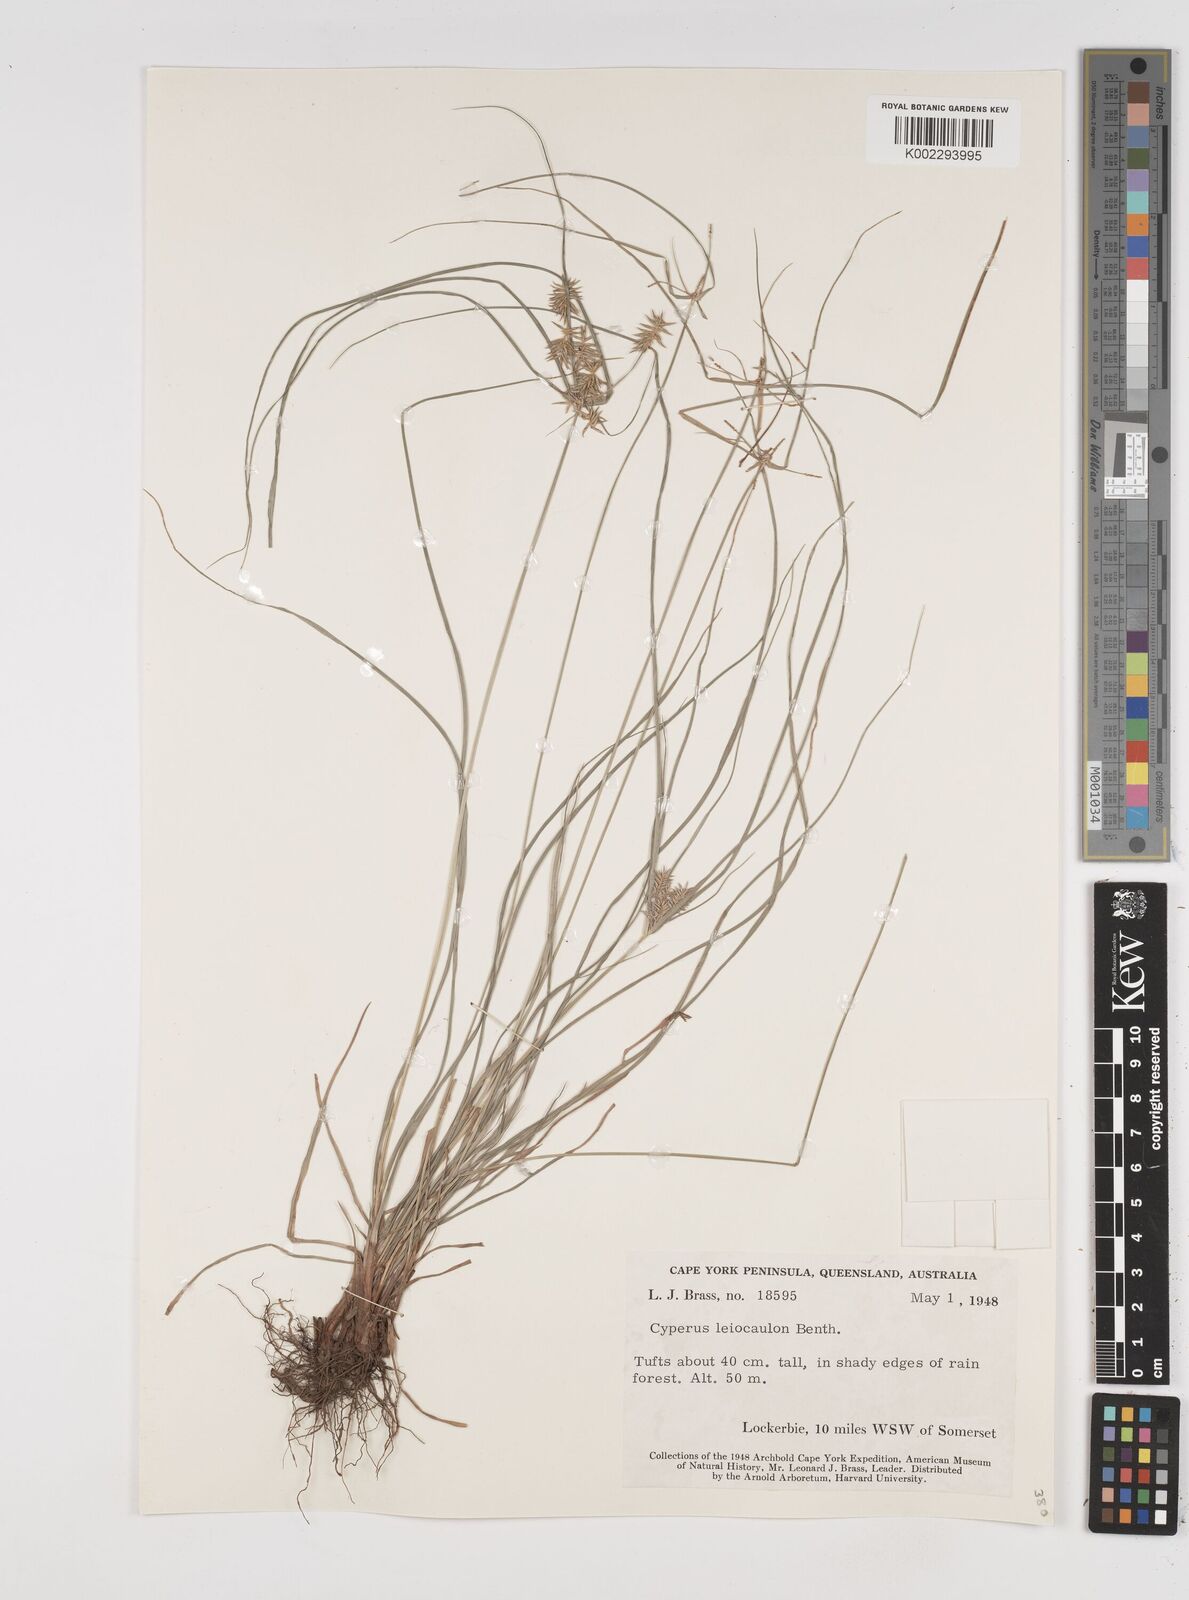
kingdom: Plantae
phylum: Tracheophyta
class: Liliopsida
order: Poales
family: Cyperaceae
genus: Cyperus
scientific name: Cyperus leiocaulon
